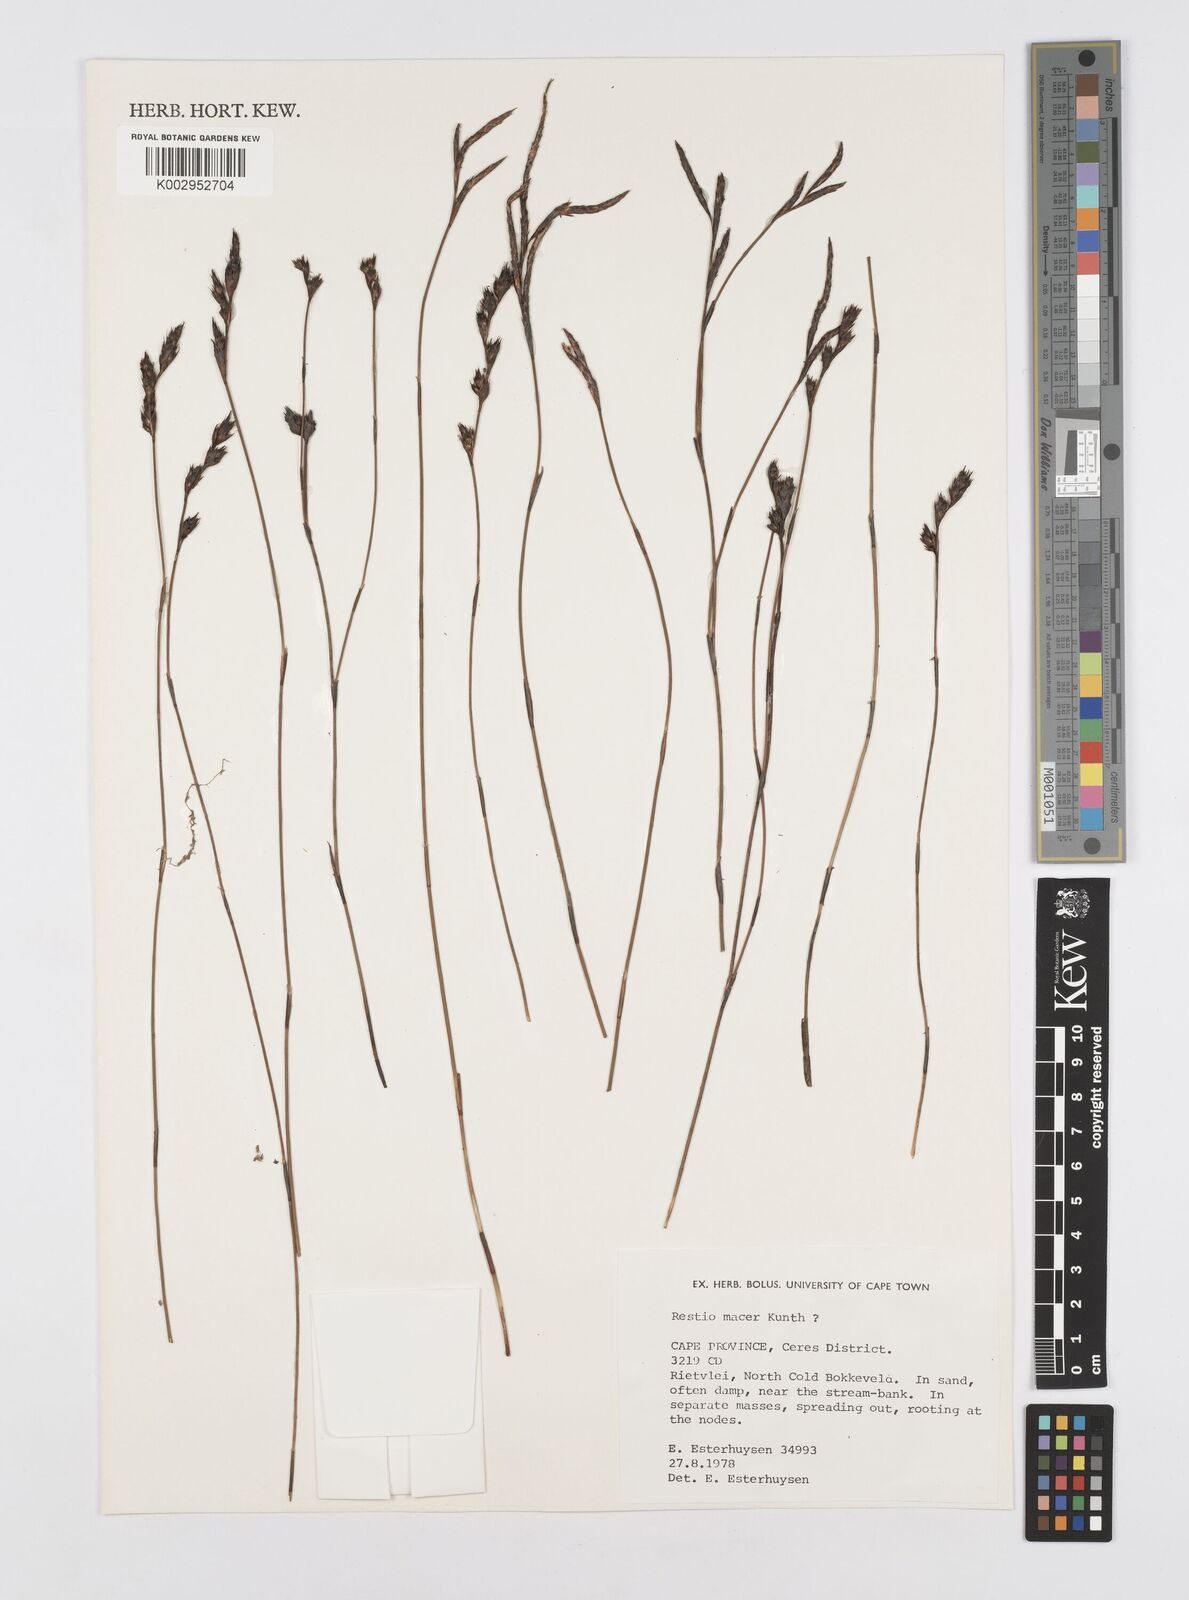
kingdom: Plantae
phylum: Tracheophyta
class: Liliopsida
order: Poales
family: Restionaceae
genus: Restio
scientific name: Restio macer
